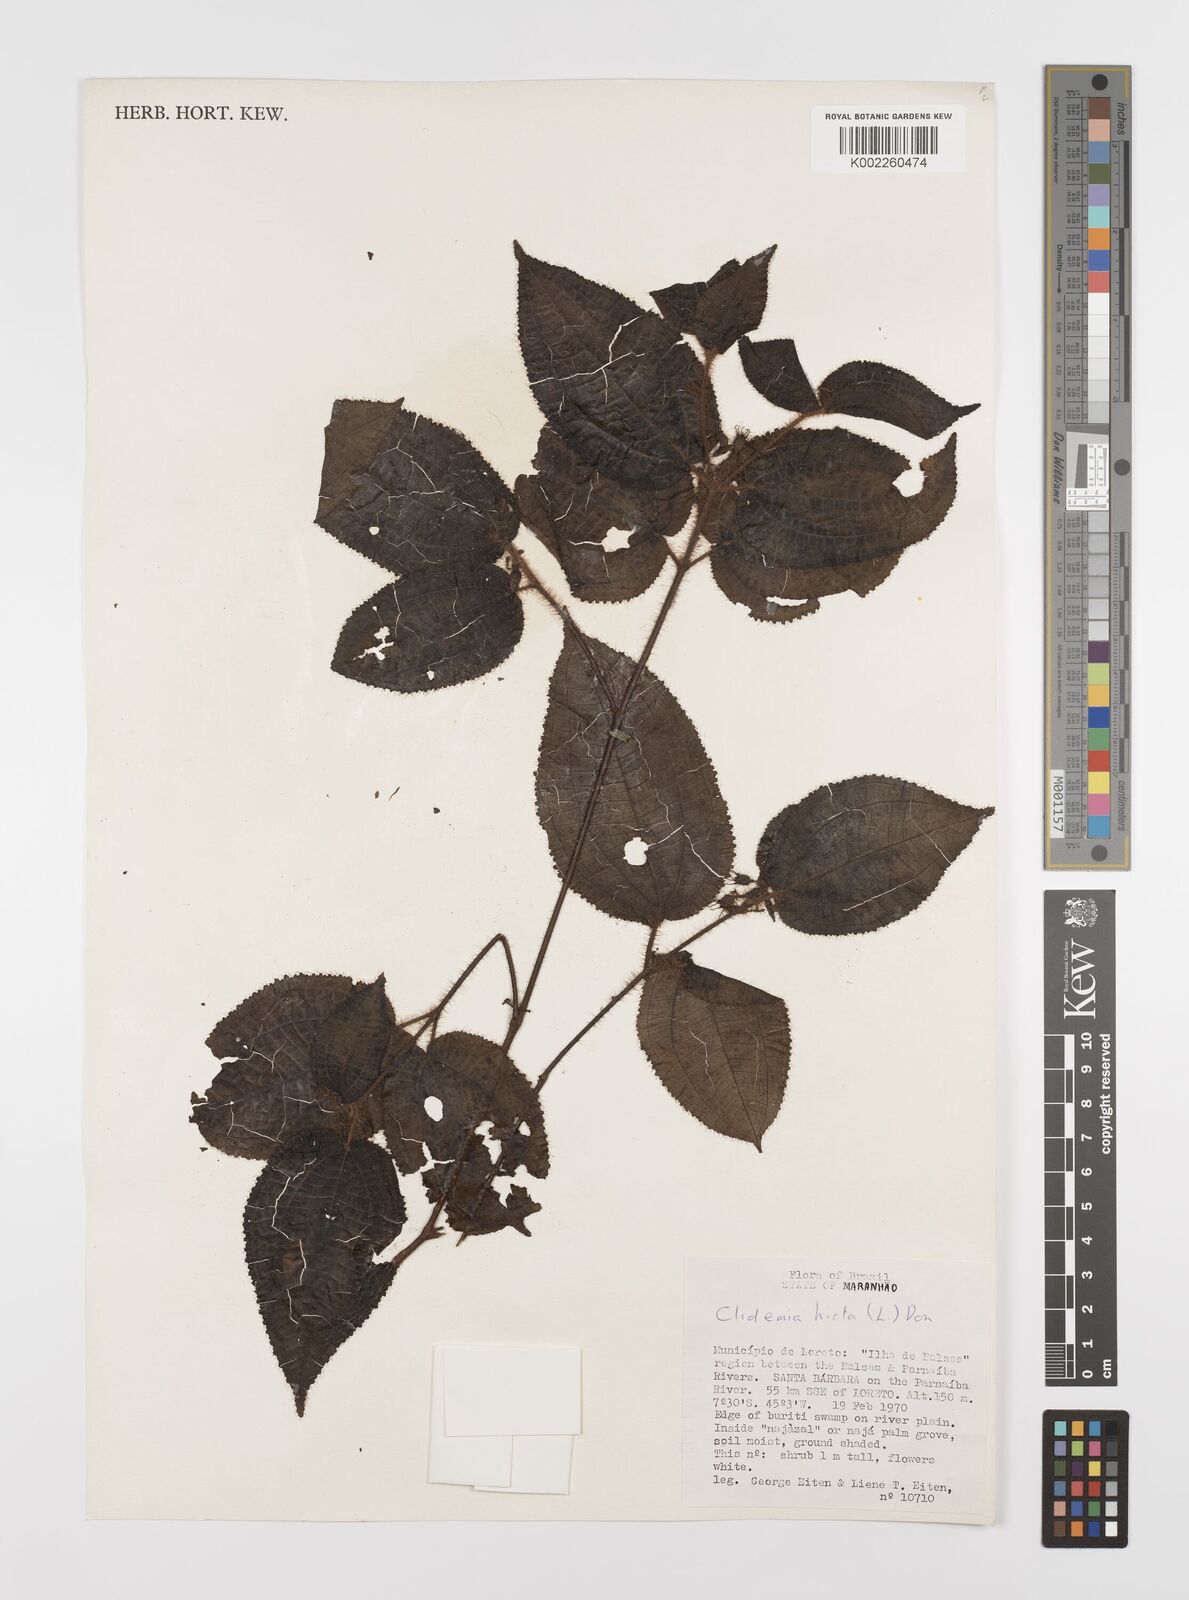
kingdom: Plantae
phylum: Tracheophyta
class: Magnoliopsida
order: Myrtales
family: Melastomataceae
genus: Miconia
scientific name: Miconia crenata
